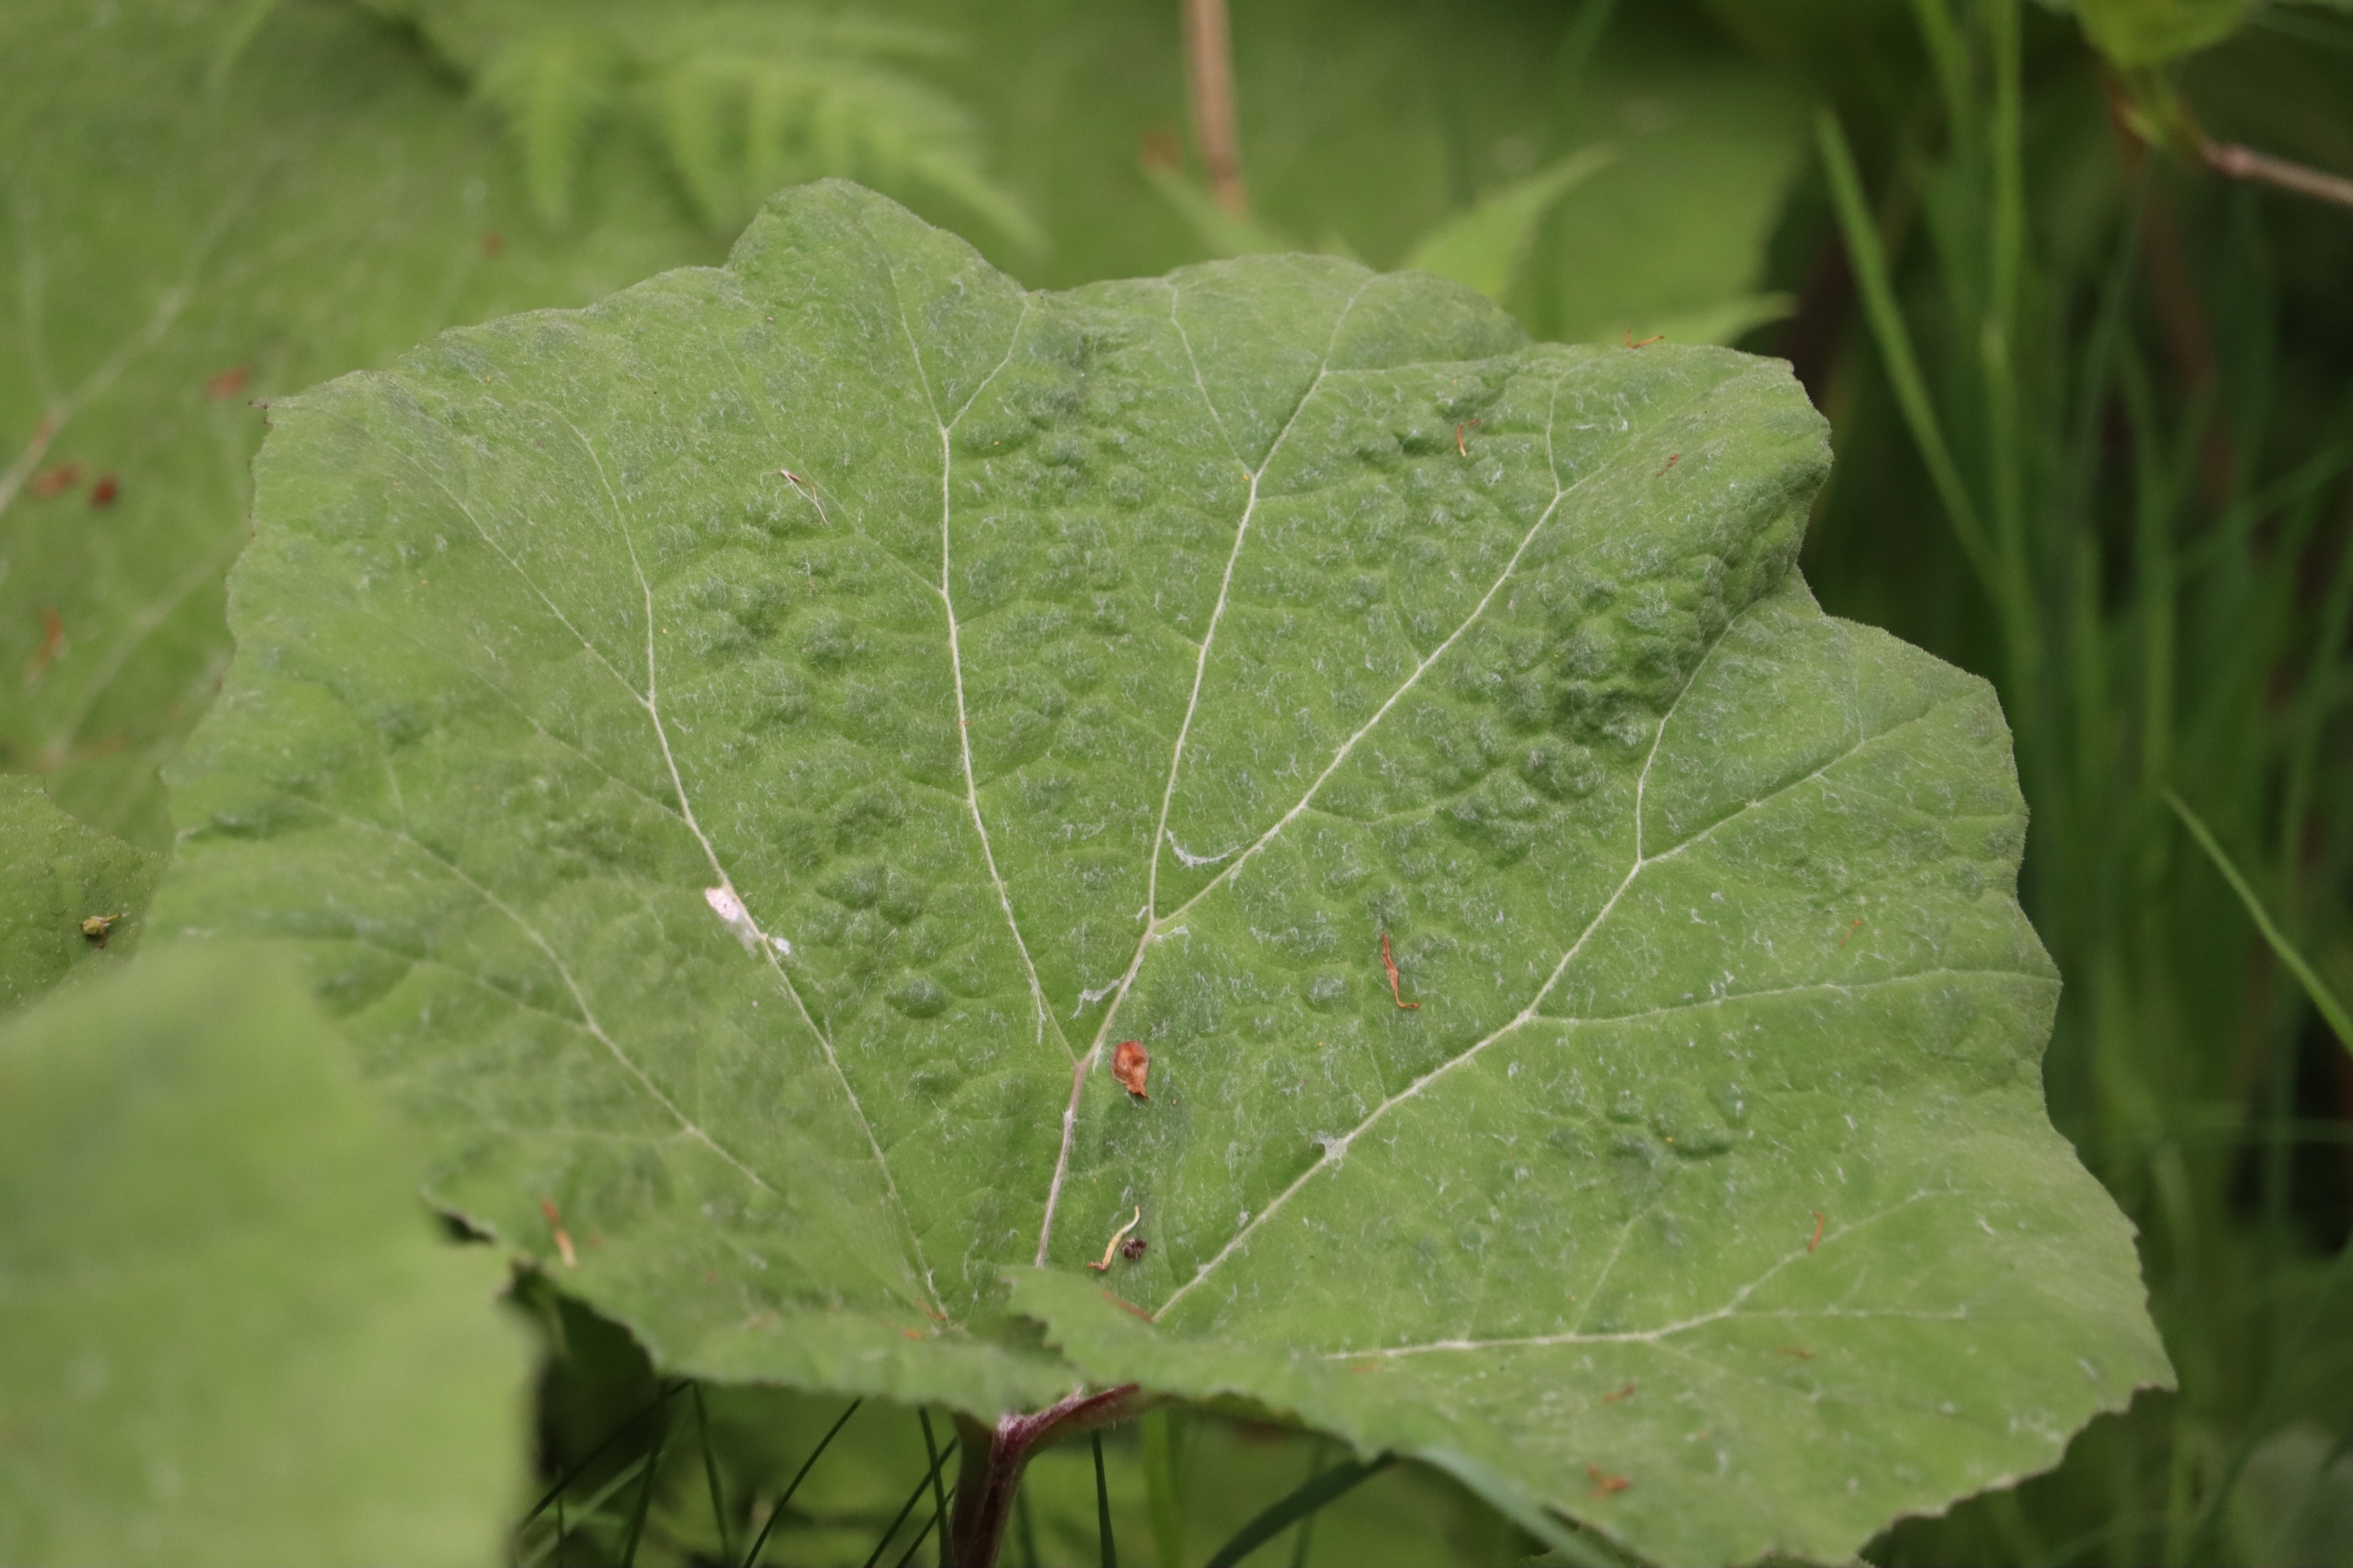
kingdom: Plantae
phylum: Tracheophyta
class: Magnoliopsida
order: Asterales
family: Asteraceae
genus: Petasites
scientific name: Petasites hybridus
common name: Rød hestehov
